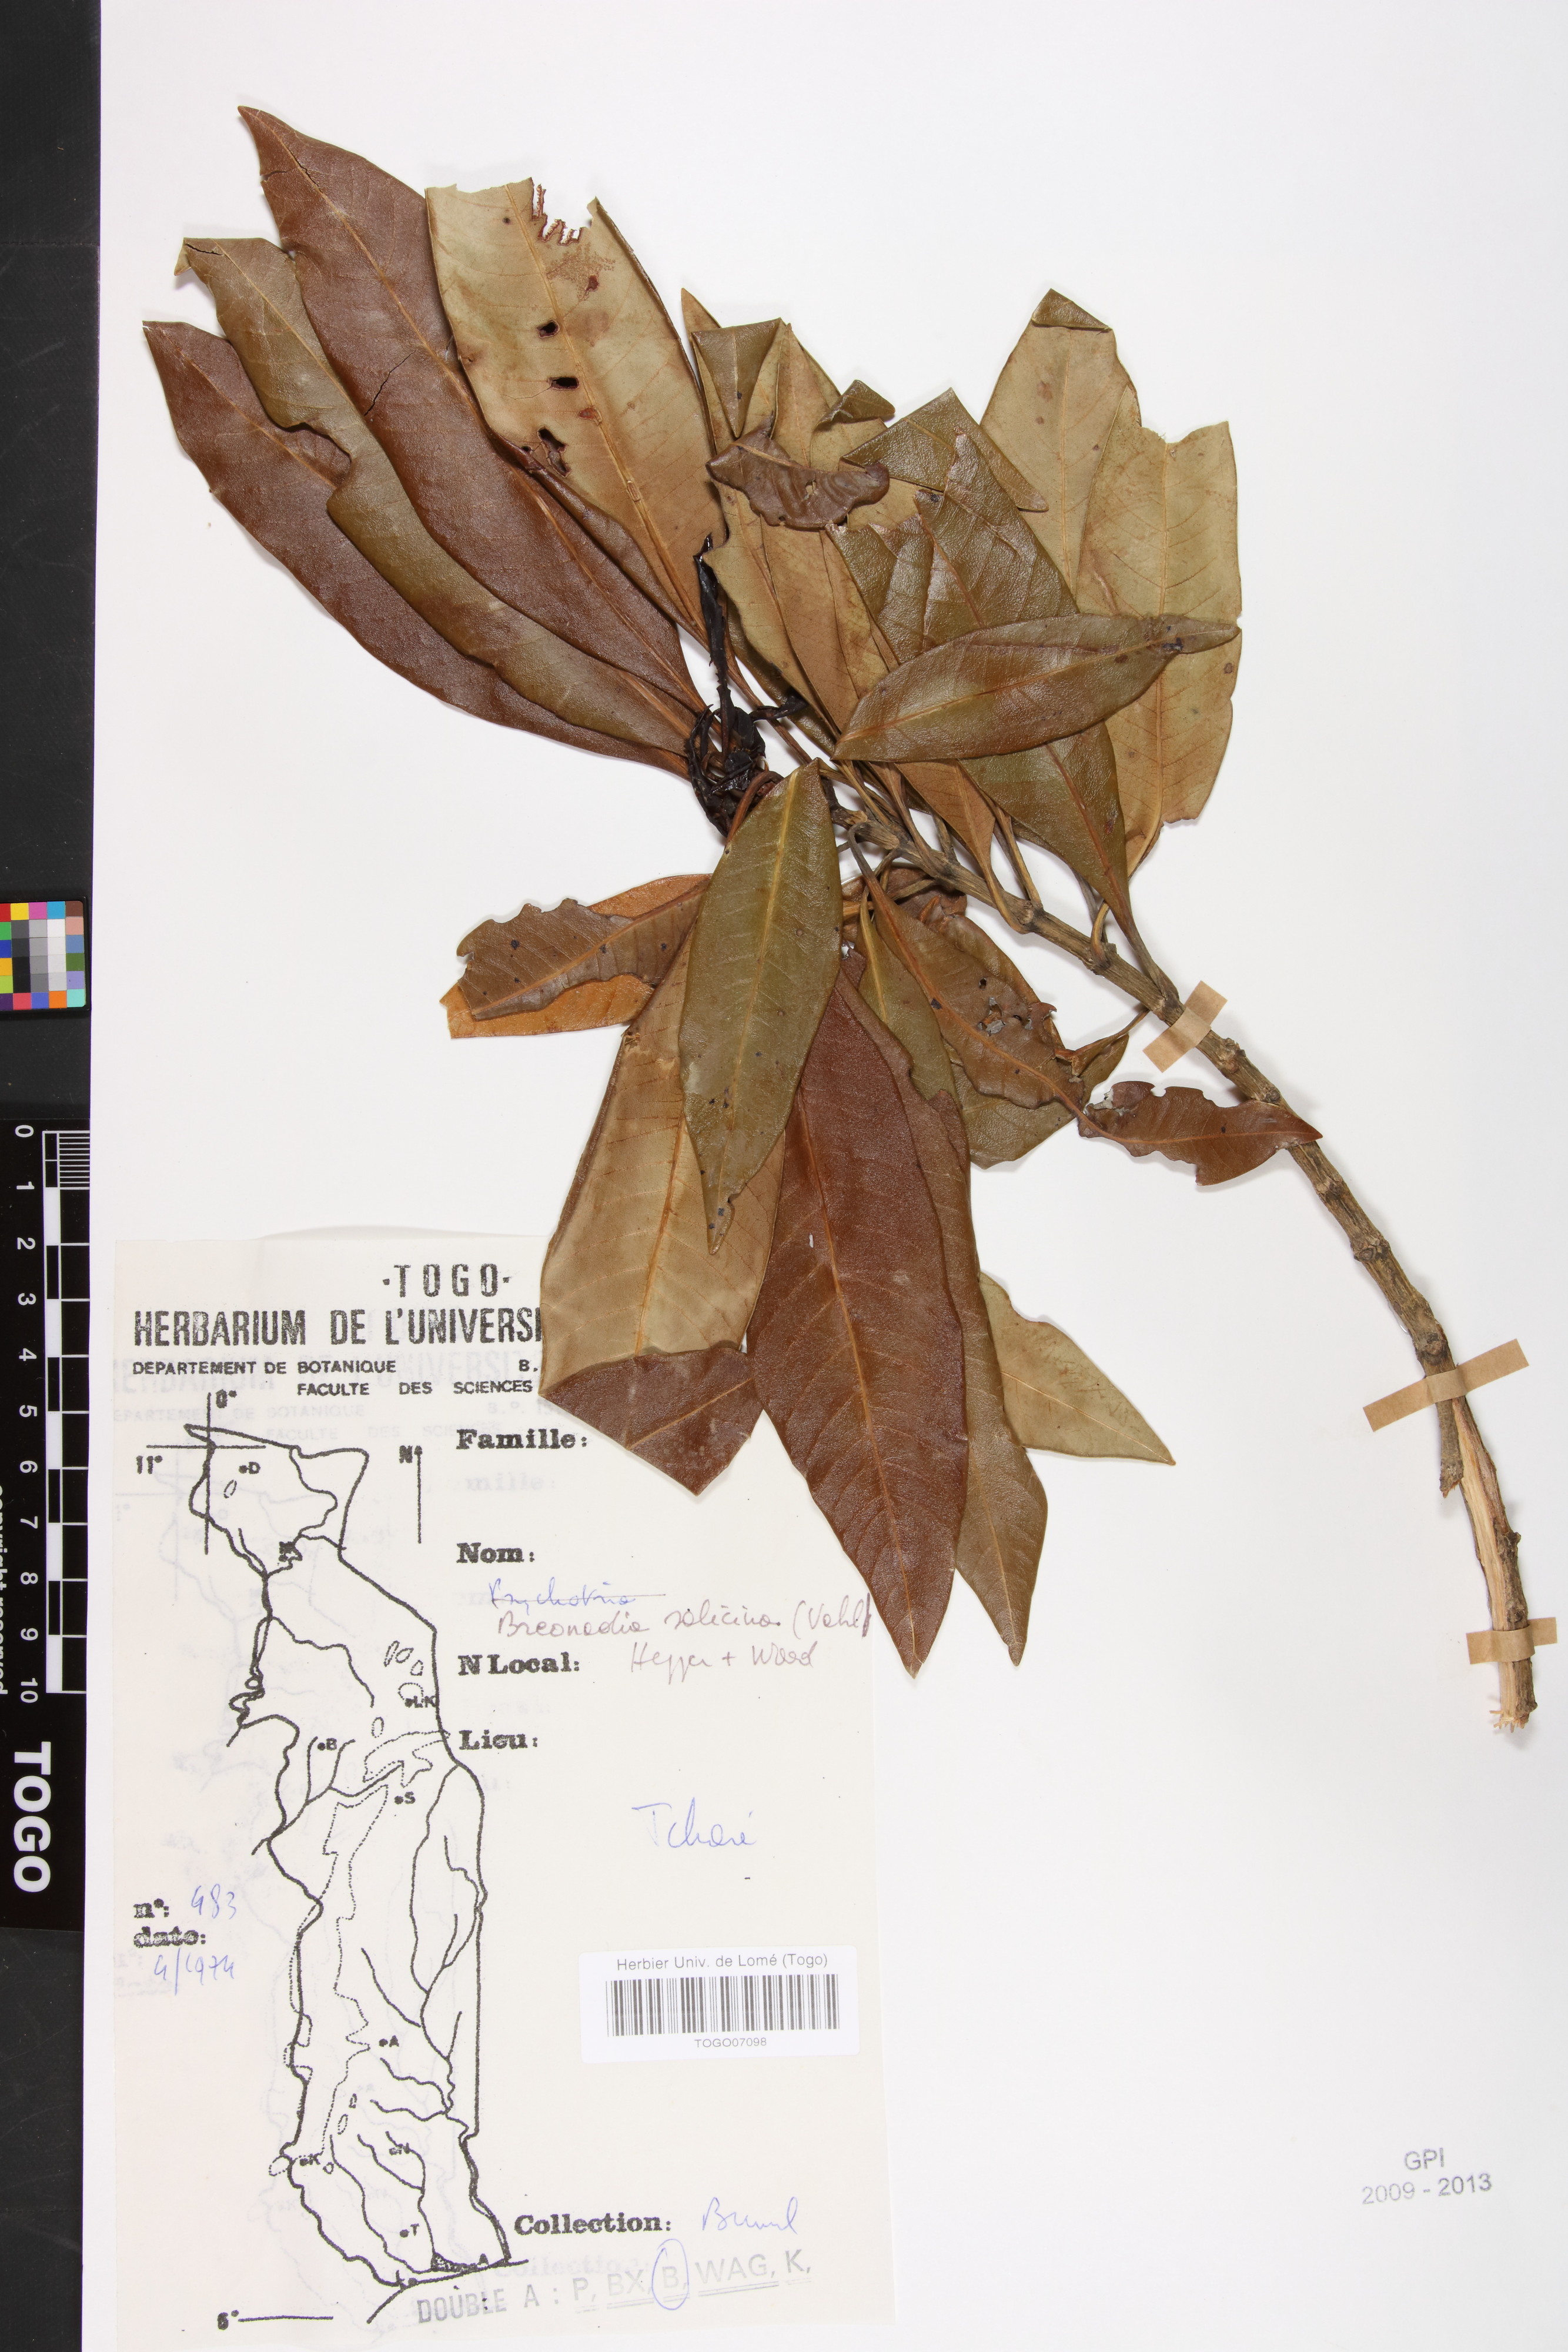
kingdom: Plantae
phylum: Tracheophyta
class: Magnoliopsida
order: Gentianales
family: Rubiaceae
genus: Breonadia
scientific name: Breonadia salicina
